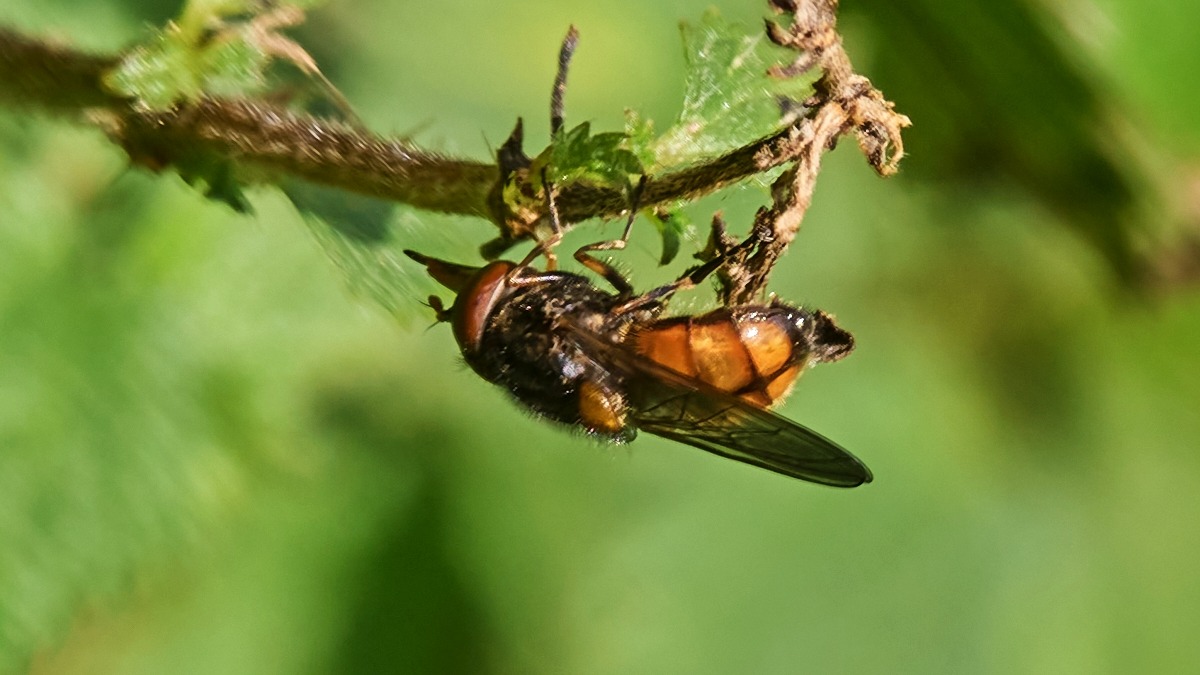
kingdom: Animalia
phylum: Arthropoda
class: Insecta
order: Diptera
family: Syrphidae
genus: Rhingia
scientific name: Rhingia campestris
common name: Mark-snabelsvirreflue
